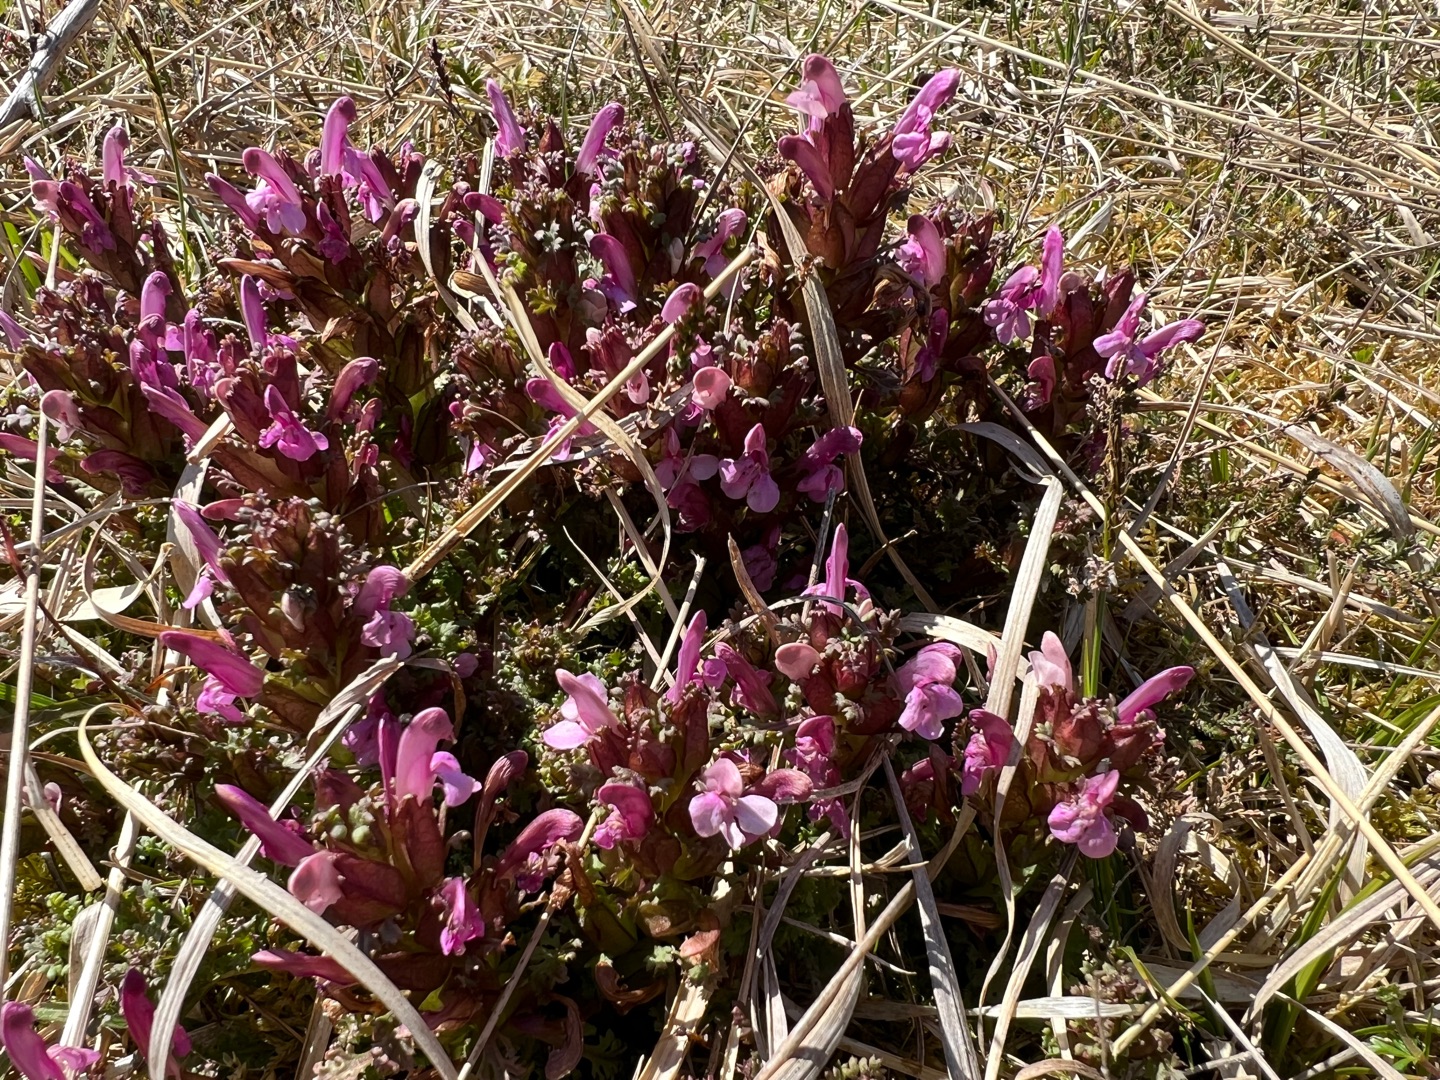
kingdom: Plantae
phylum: Tracheophyta
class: Magnoliopsida
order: Lamiales
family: Orobanchaceae
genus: Pedicularis
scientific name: Pedicularis sylvatica
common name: Mose-troldurt
